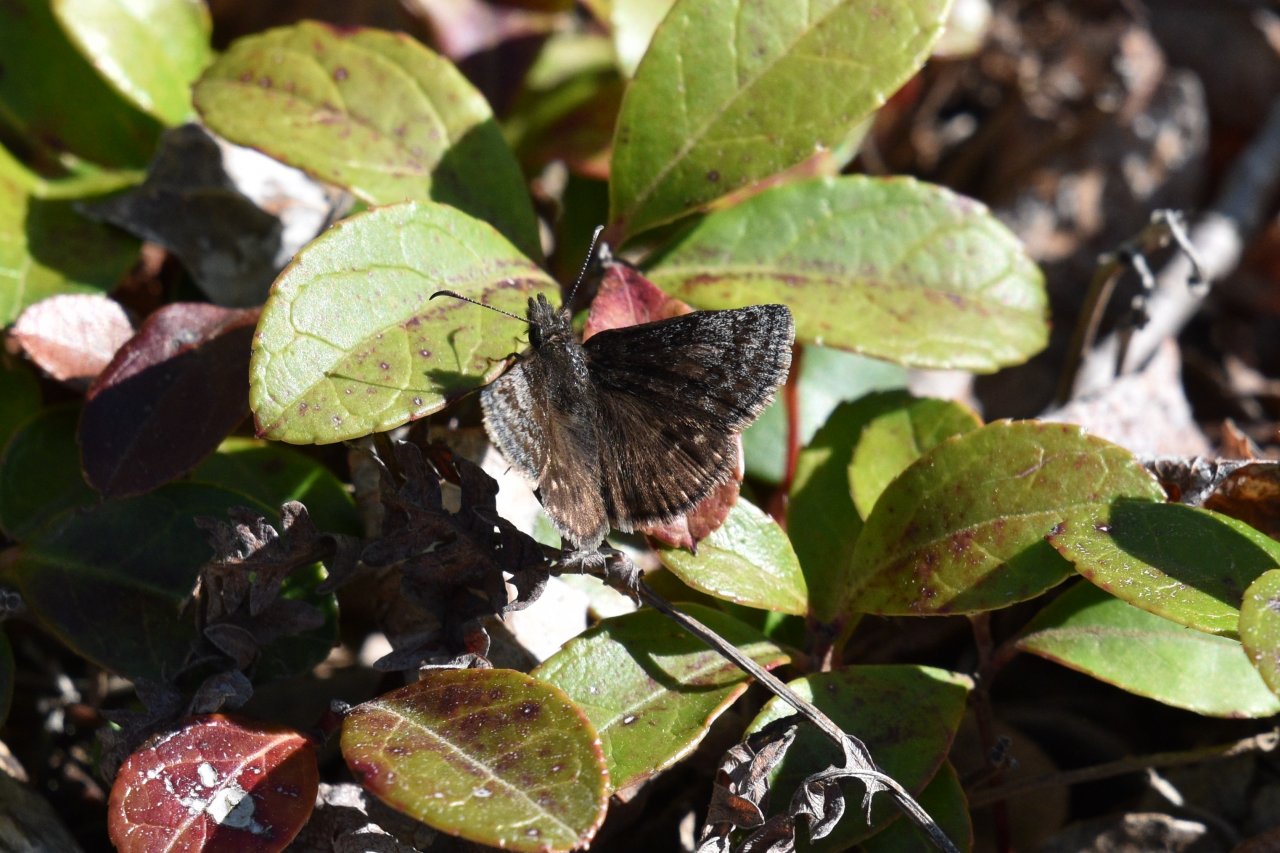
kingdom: Animalia
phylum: Arthropoda
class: Insecta
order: Lepidoptera
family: Hesperiidae
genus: Erynnis
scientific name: Erynnis icelus
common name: Dreamy Duskywing
